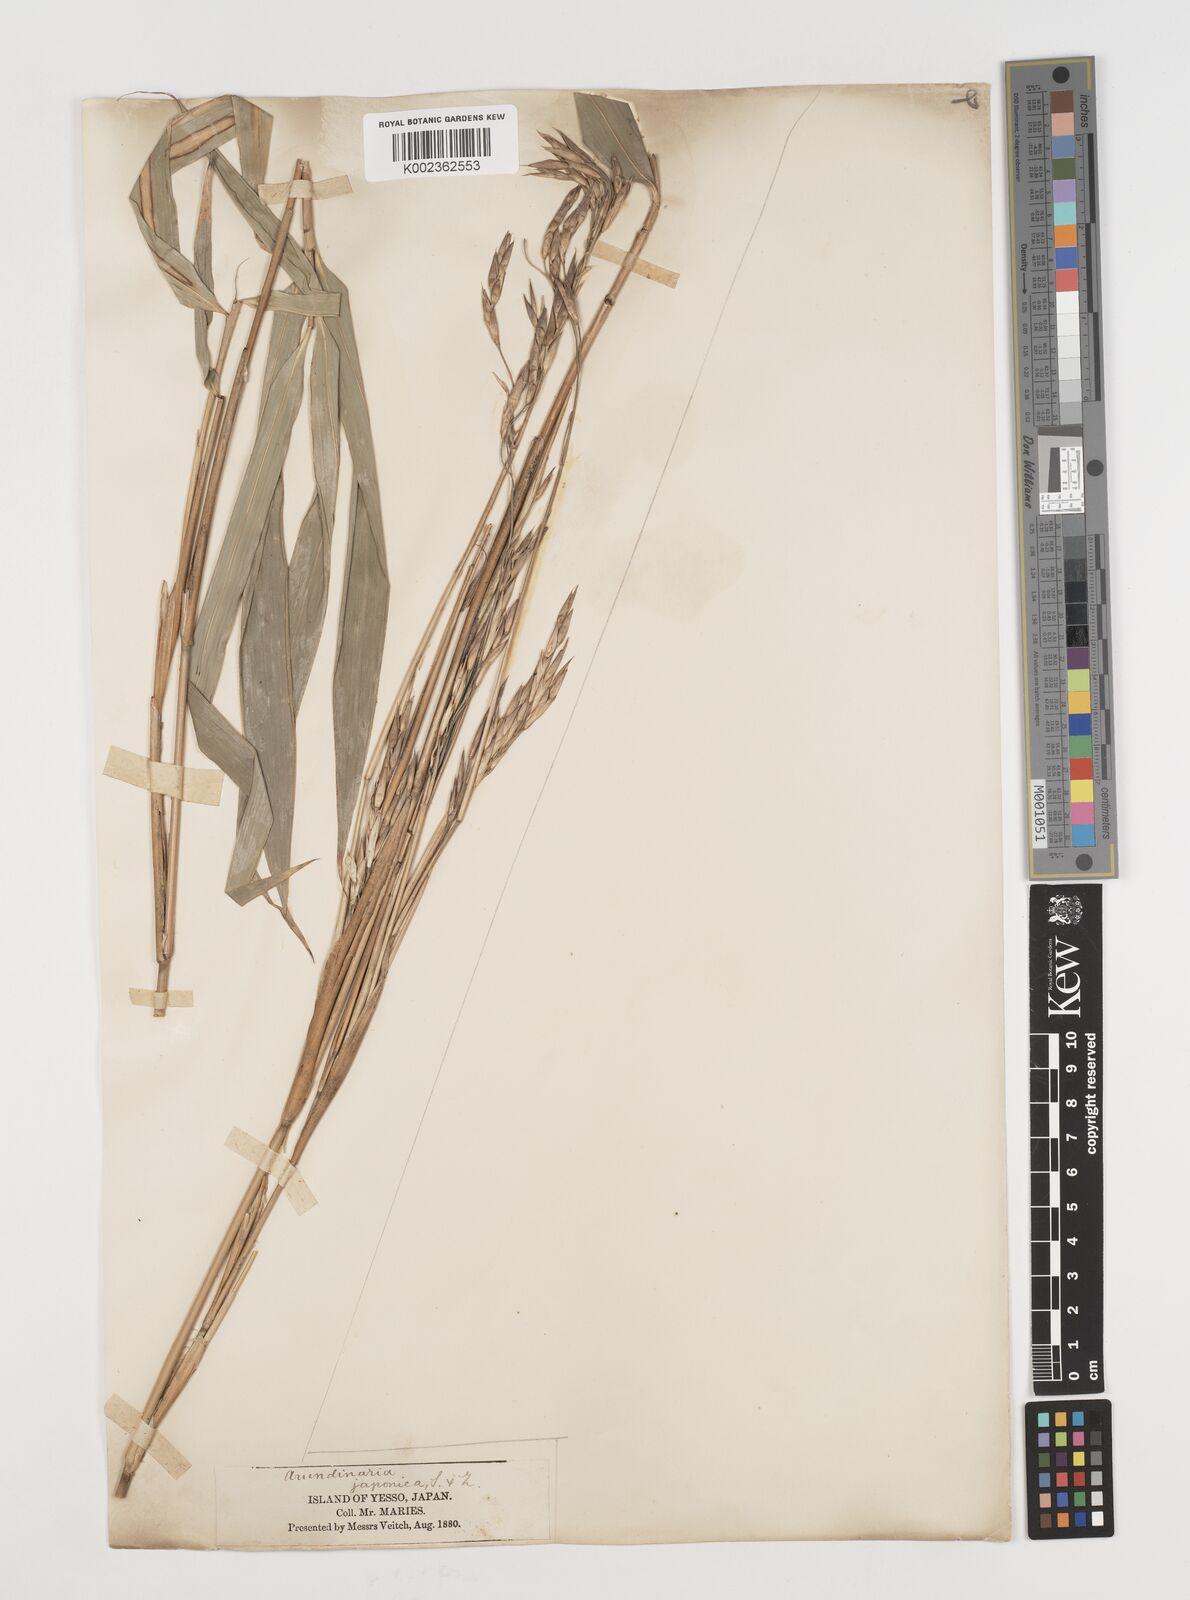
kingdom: Plantae
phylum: Tracheophyta
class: Liliopsida
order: Poales
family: Poaceae
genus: Pseudosasa
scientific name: Pseudosasa japonica
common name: Arrow bamboo
